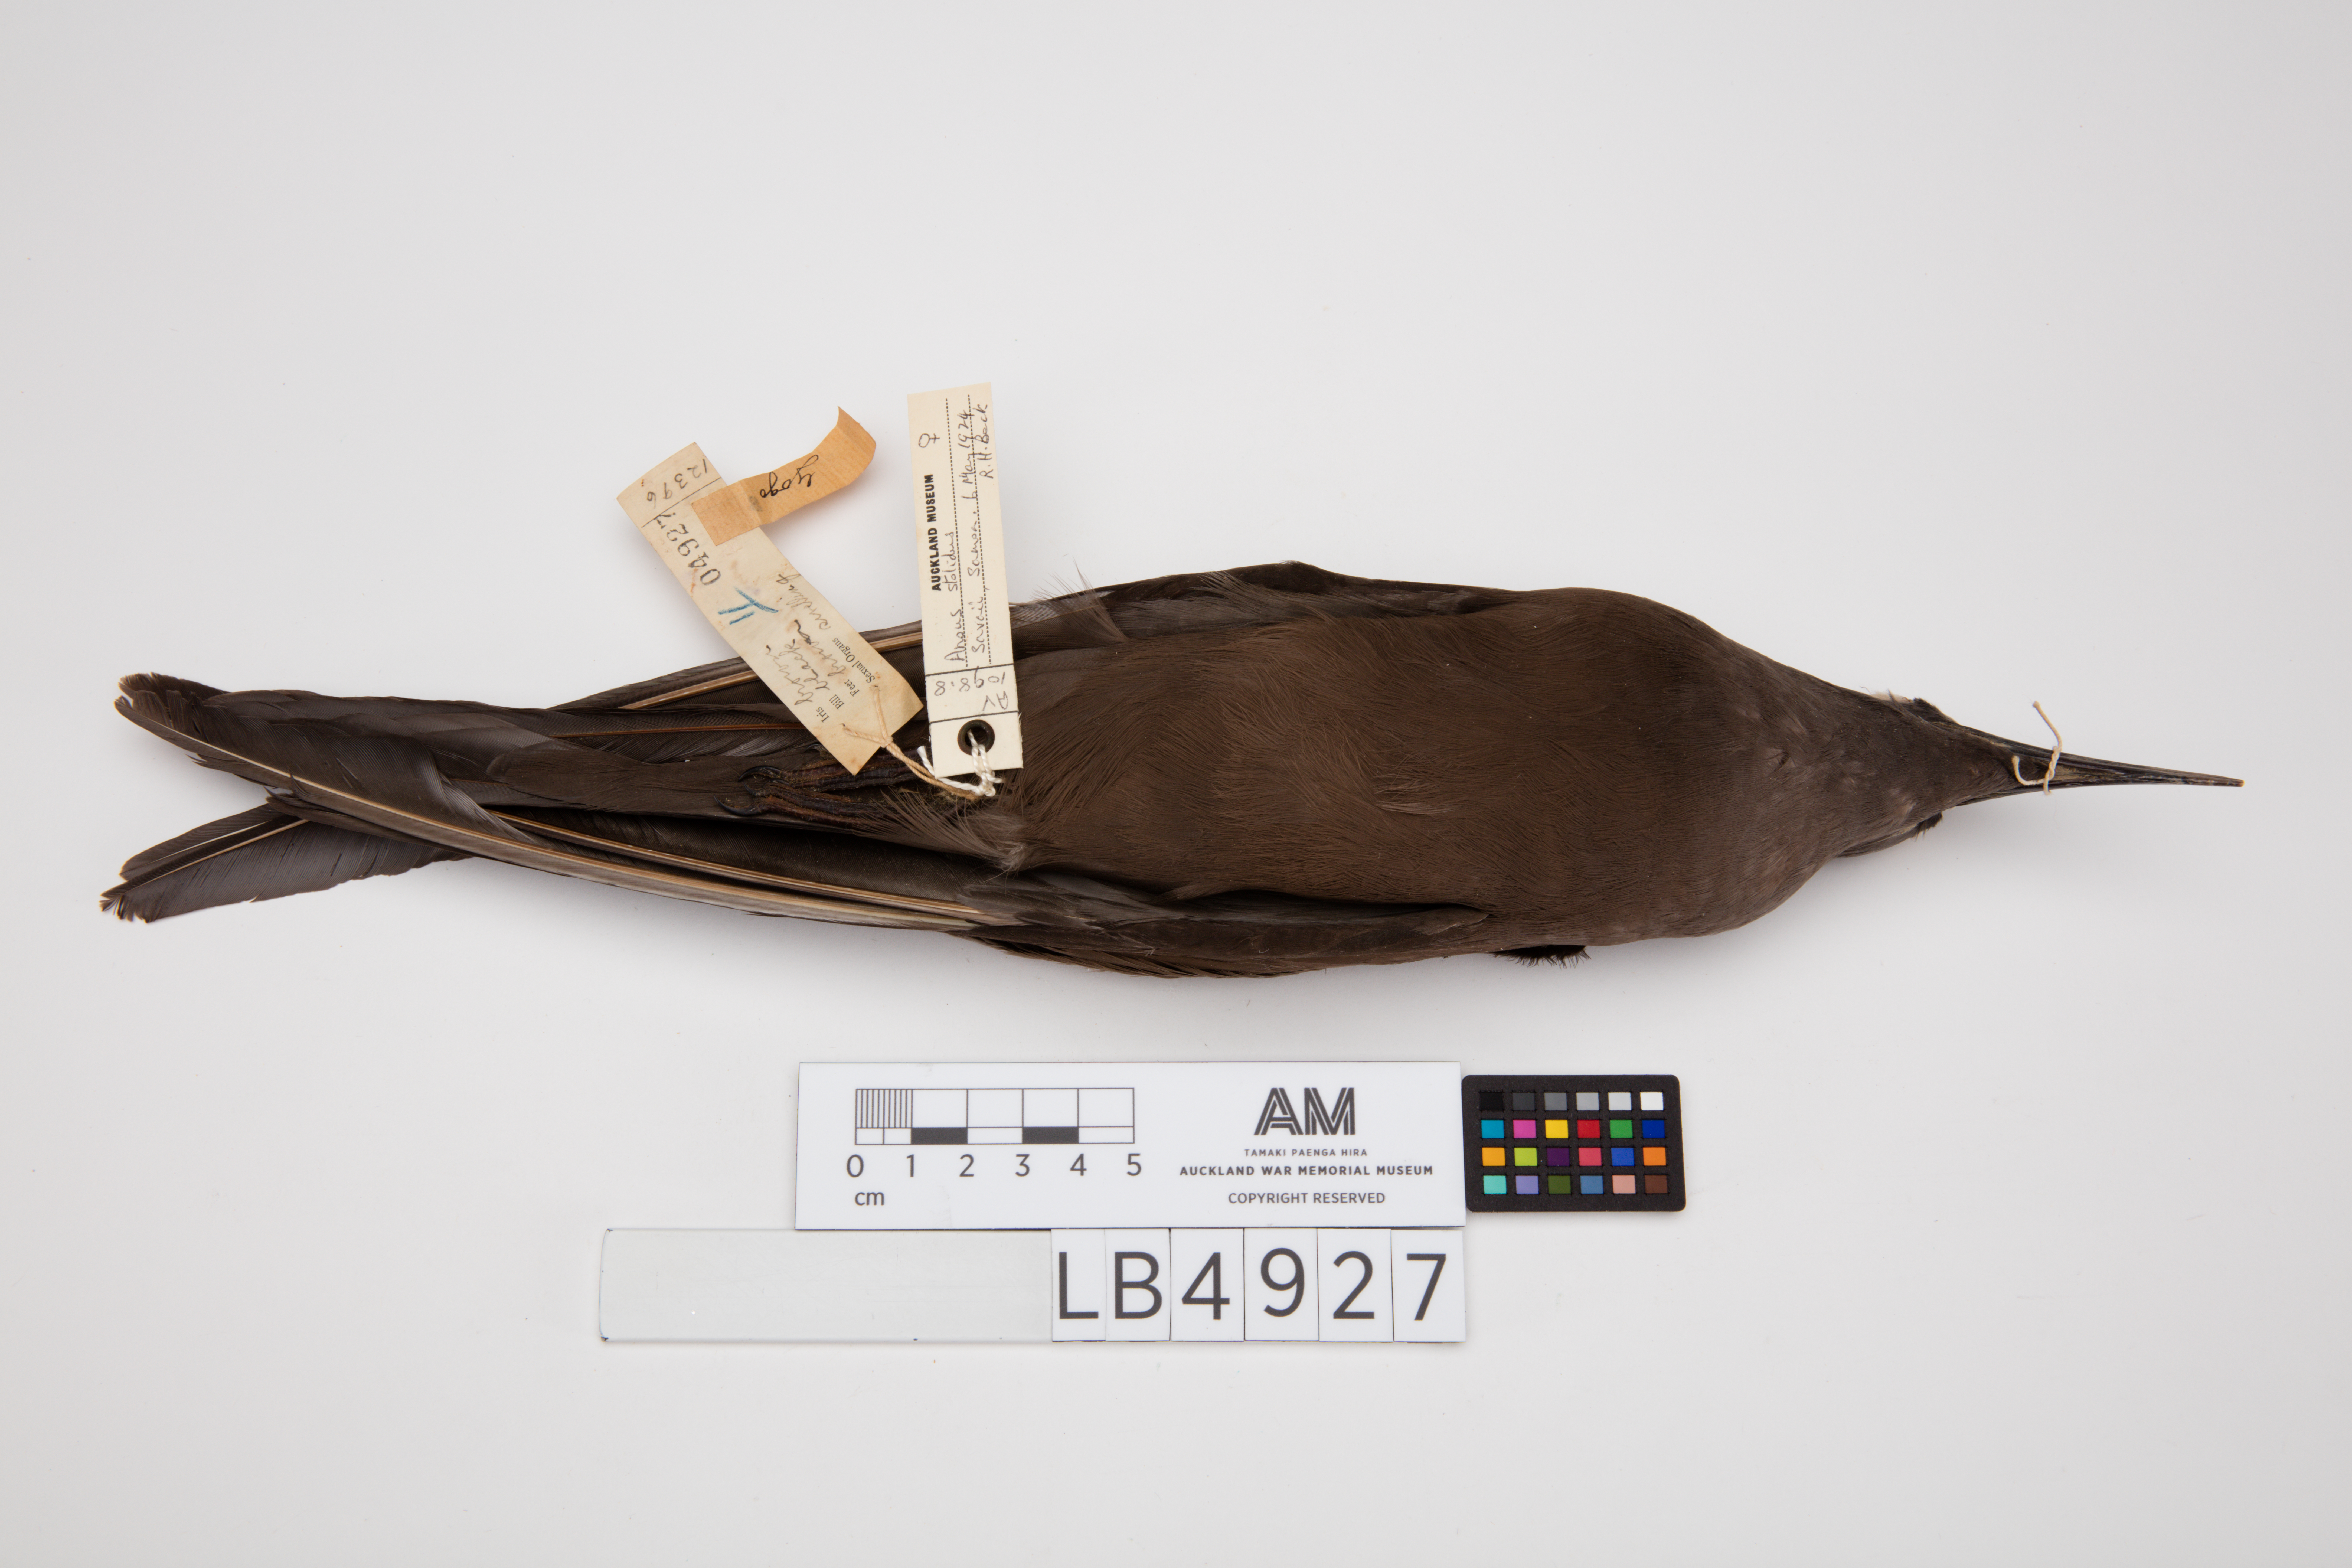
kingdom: Animalia
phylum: Chordata
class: Aves
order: Charadriiformes
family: Laridae
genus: Anous
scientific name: Anous stolidus
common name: Brown noddy
